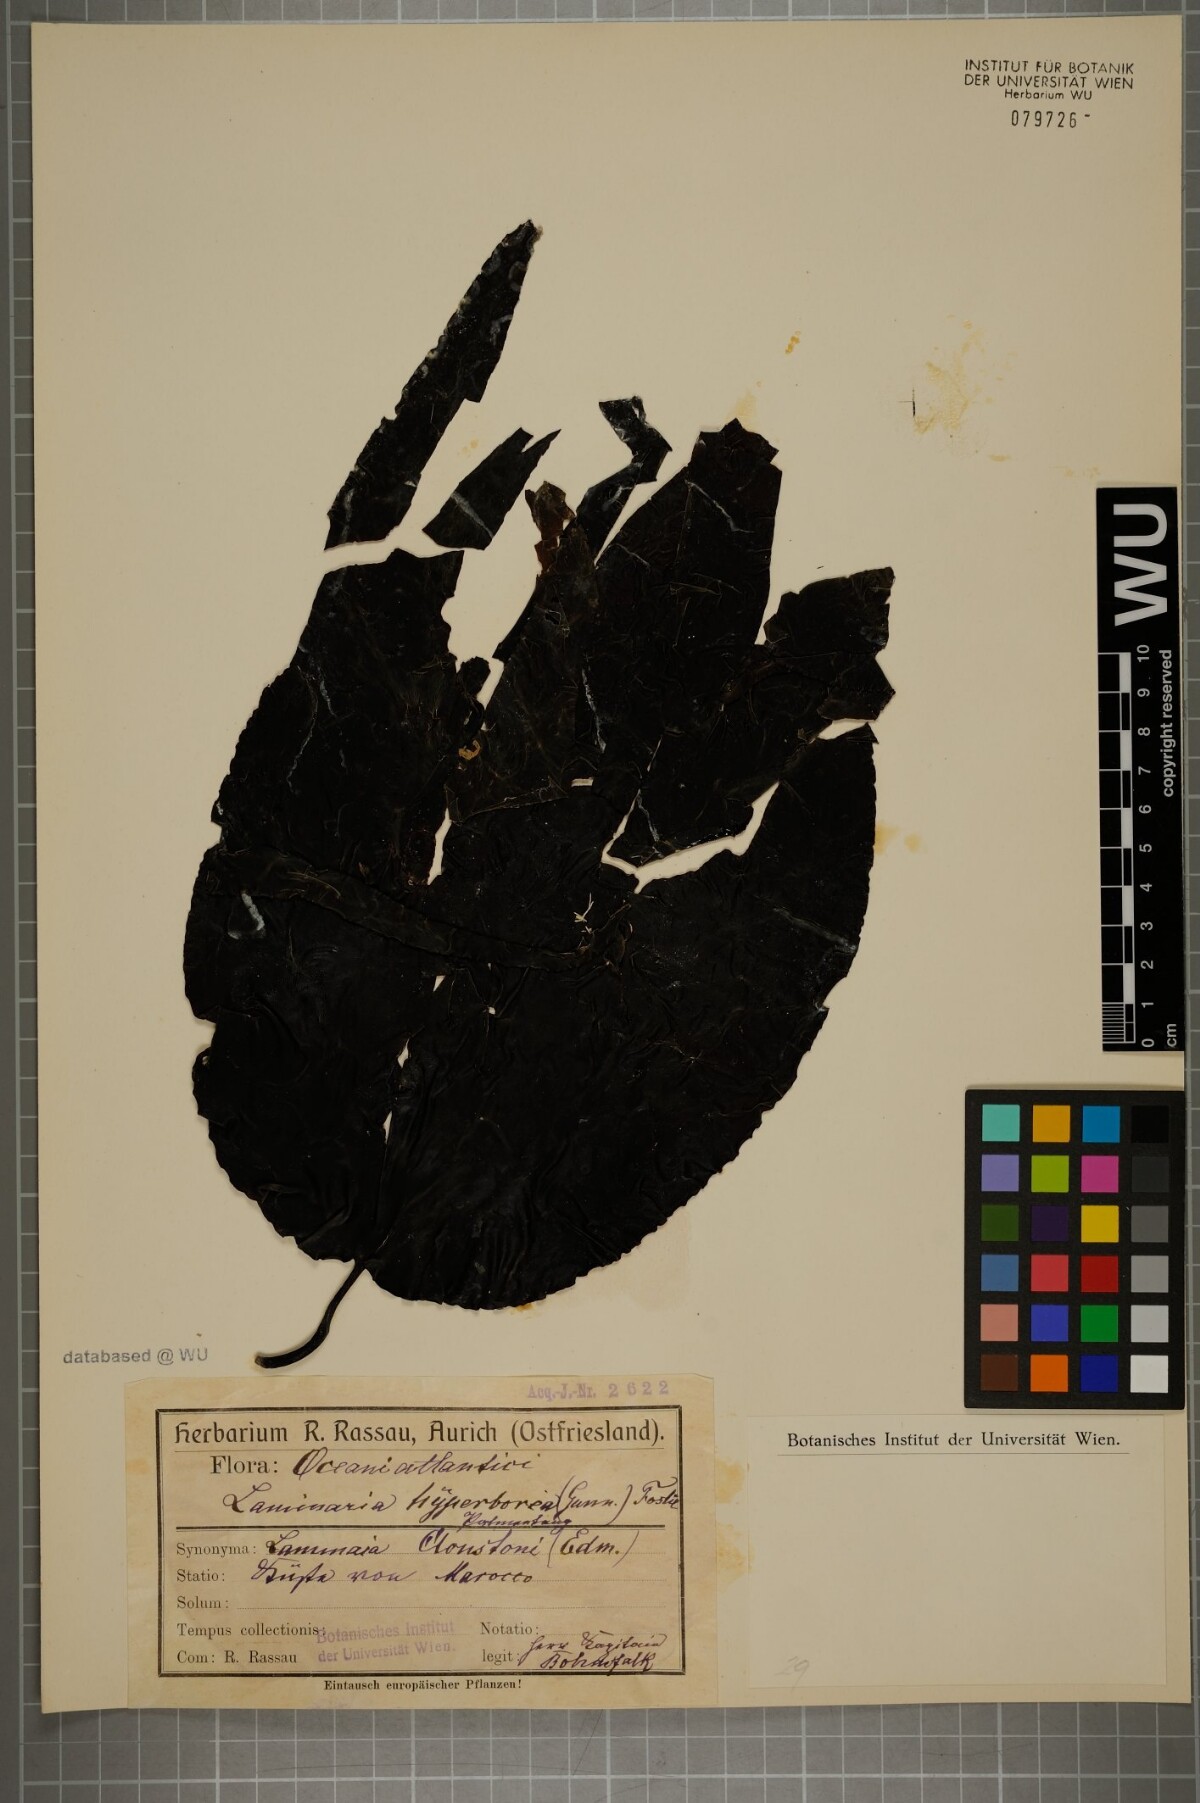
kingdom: Chromista
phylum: Ochrophyta
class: Phaeophyceae
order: Laminariales
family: Laminariaceae
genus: Laminaria
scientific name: Laminaria hyperborea
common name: Cuvie
